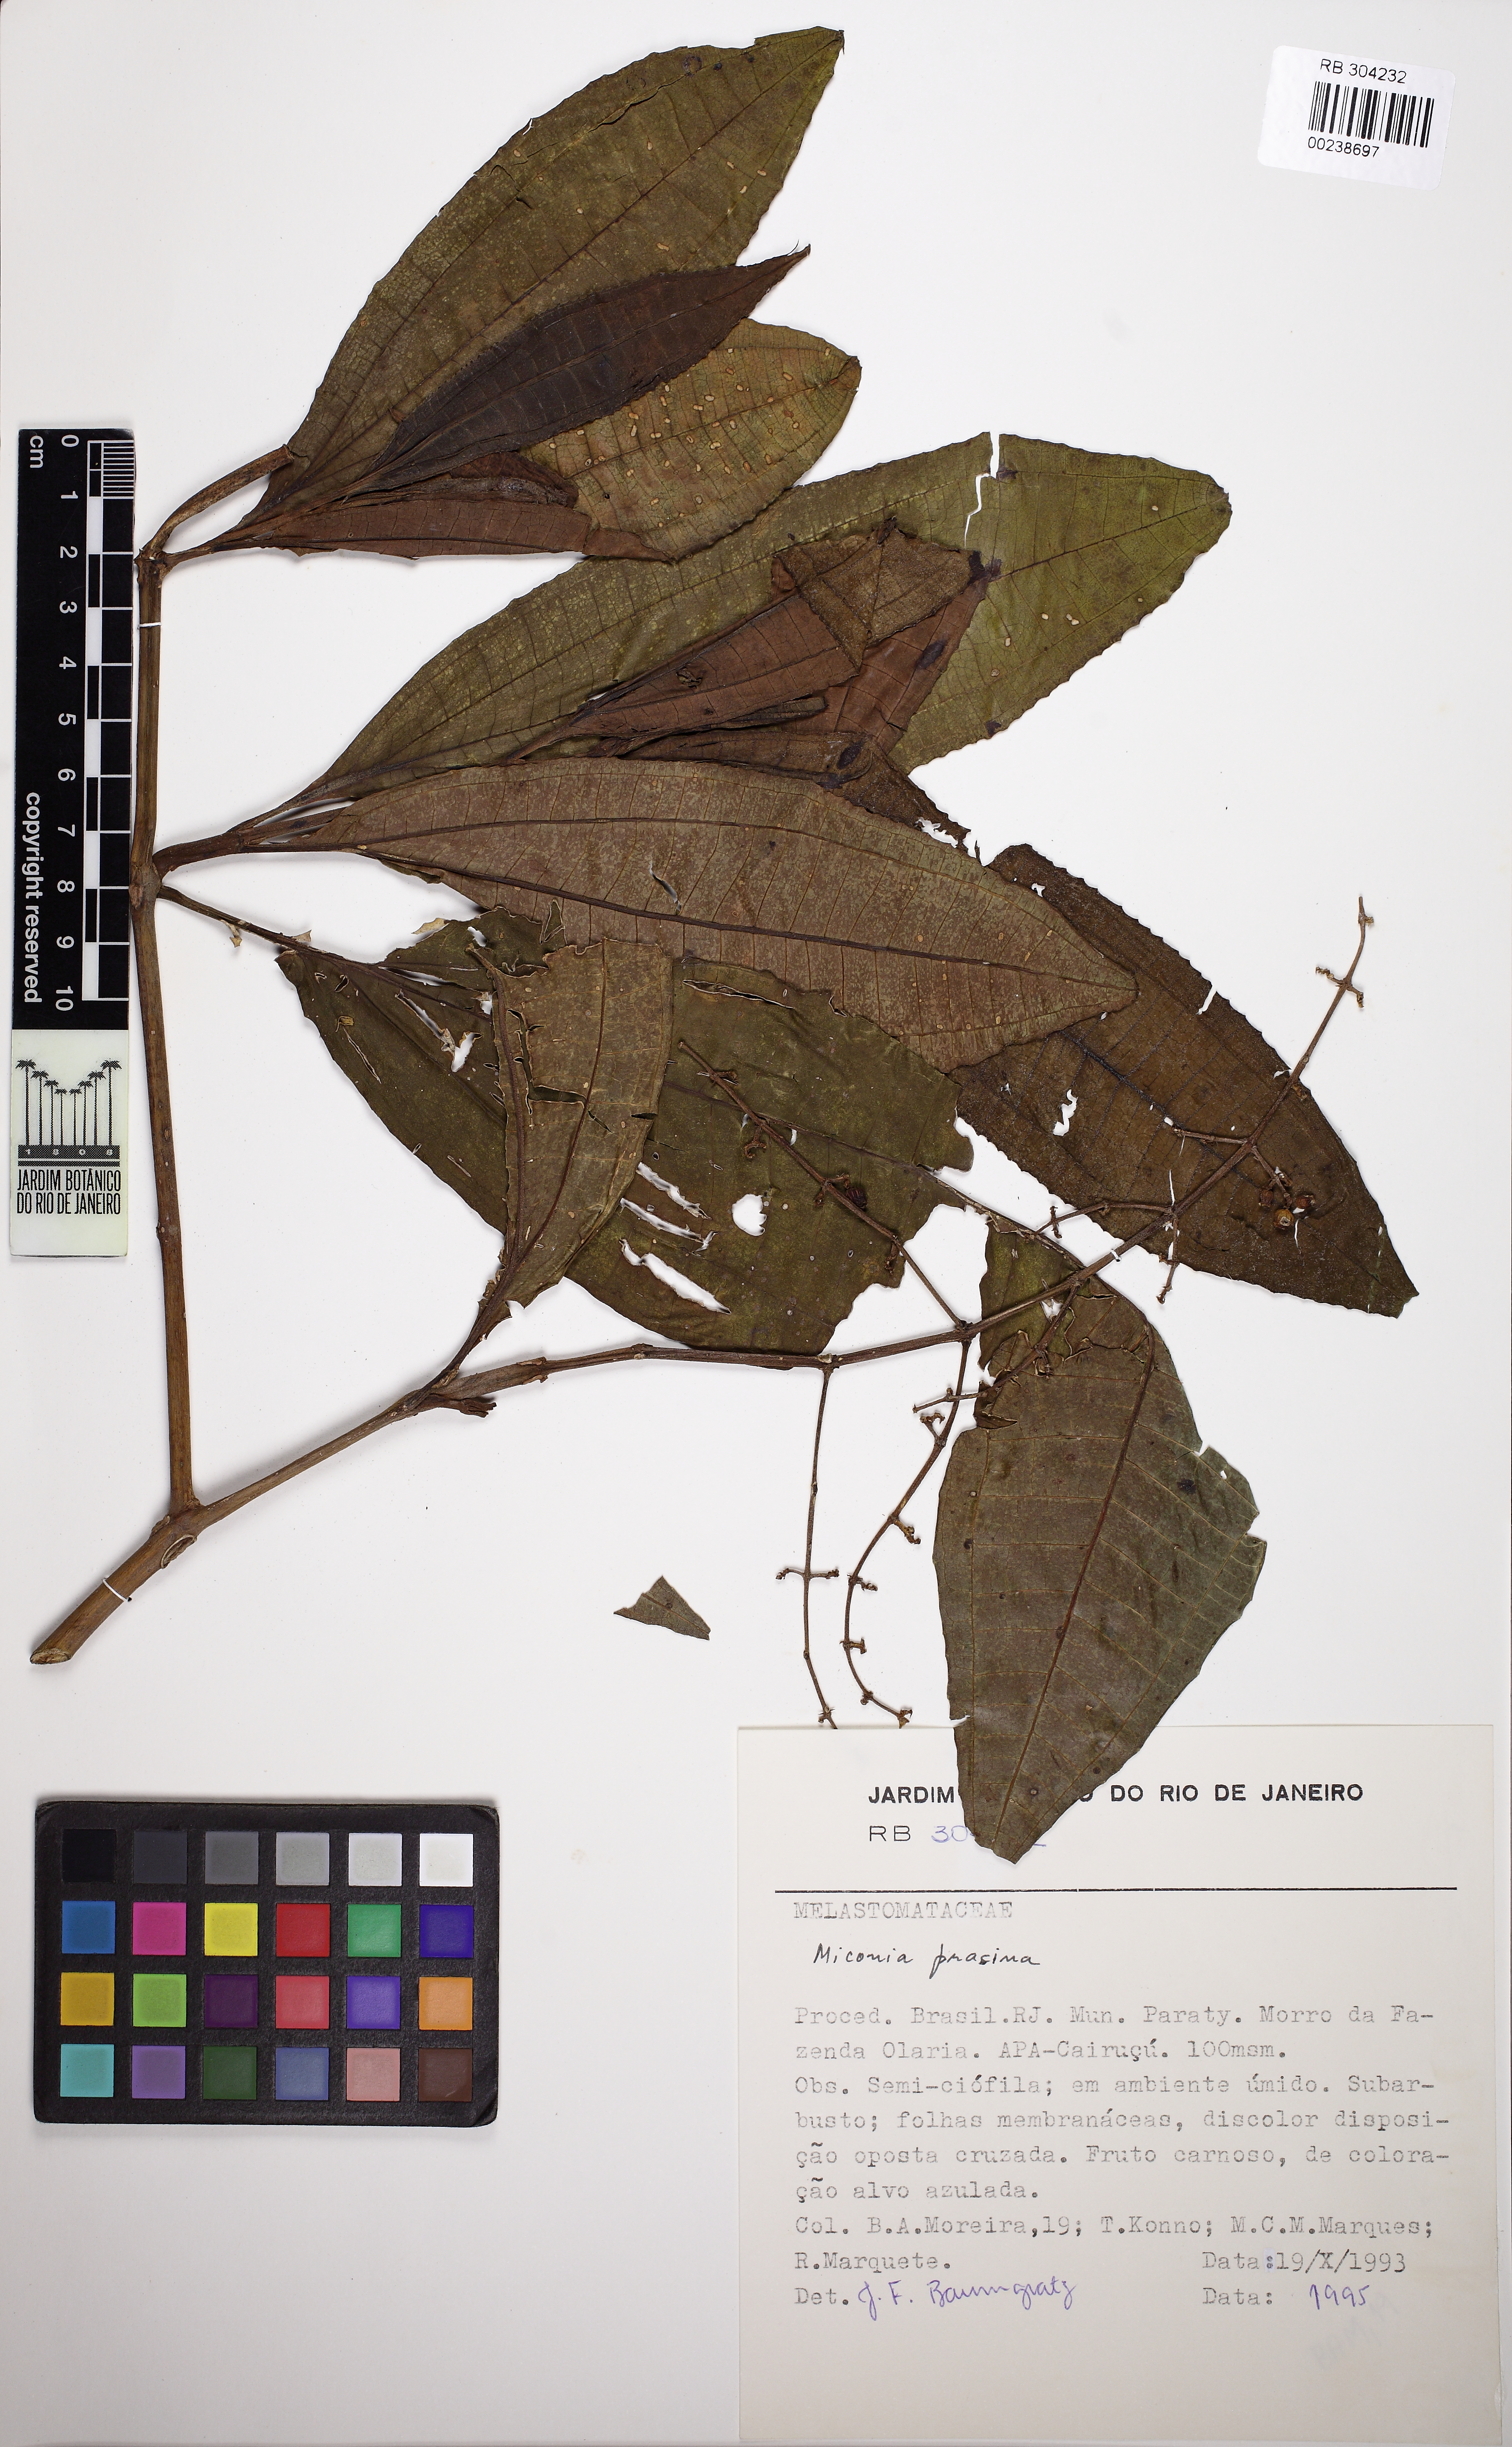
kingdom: Plantae
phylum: Tracheophyta
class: Magnoliopsida
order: Myrtales
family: Melastomataceae
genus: Miconia
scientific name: Miconia prasina
